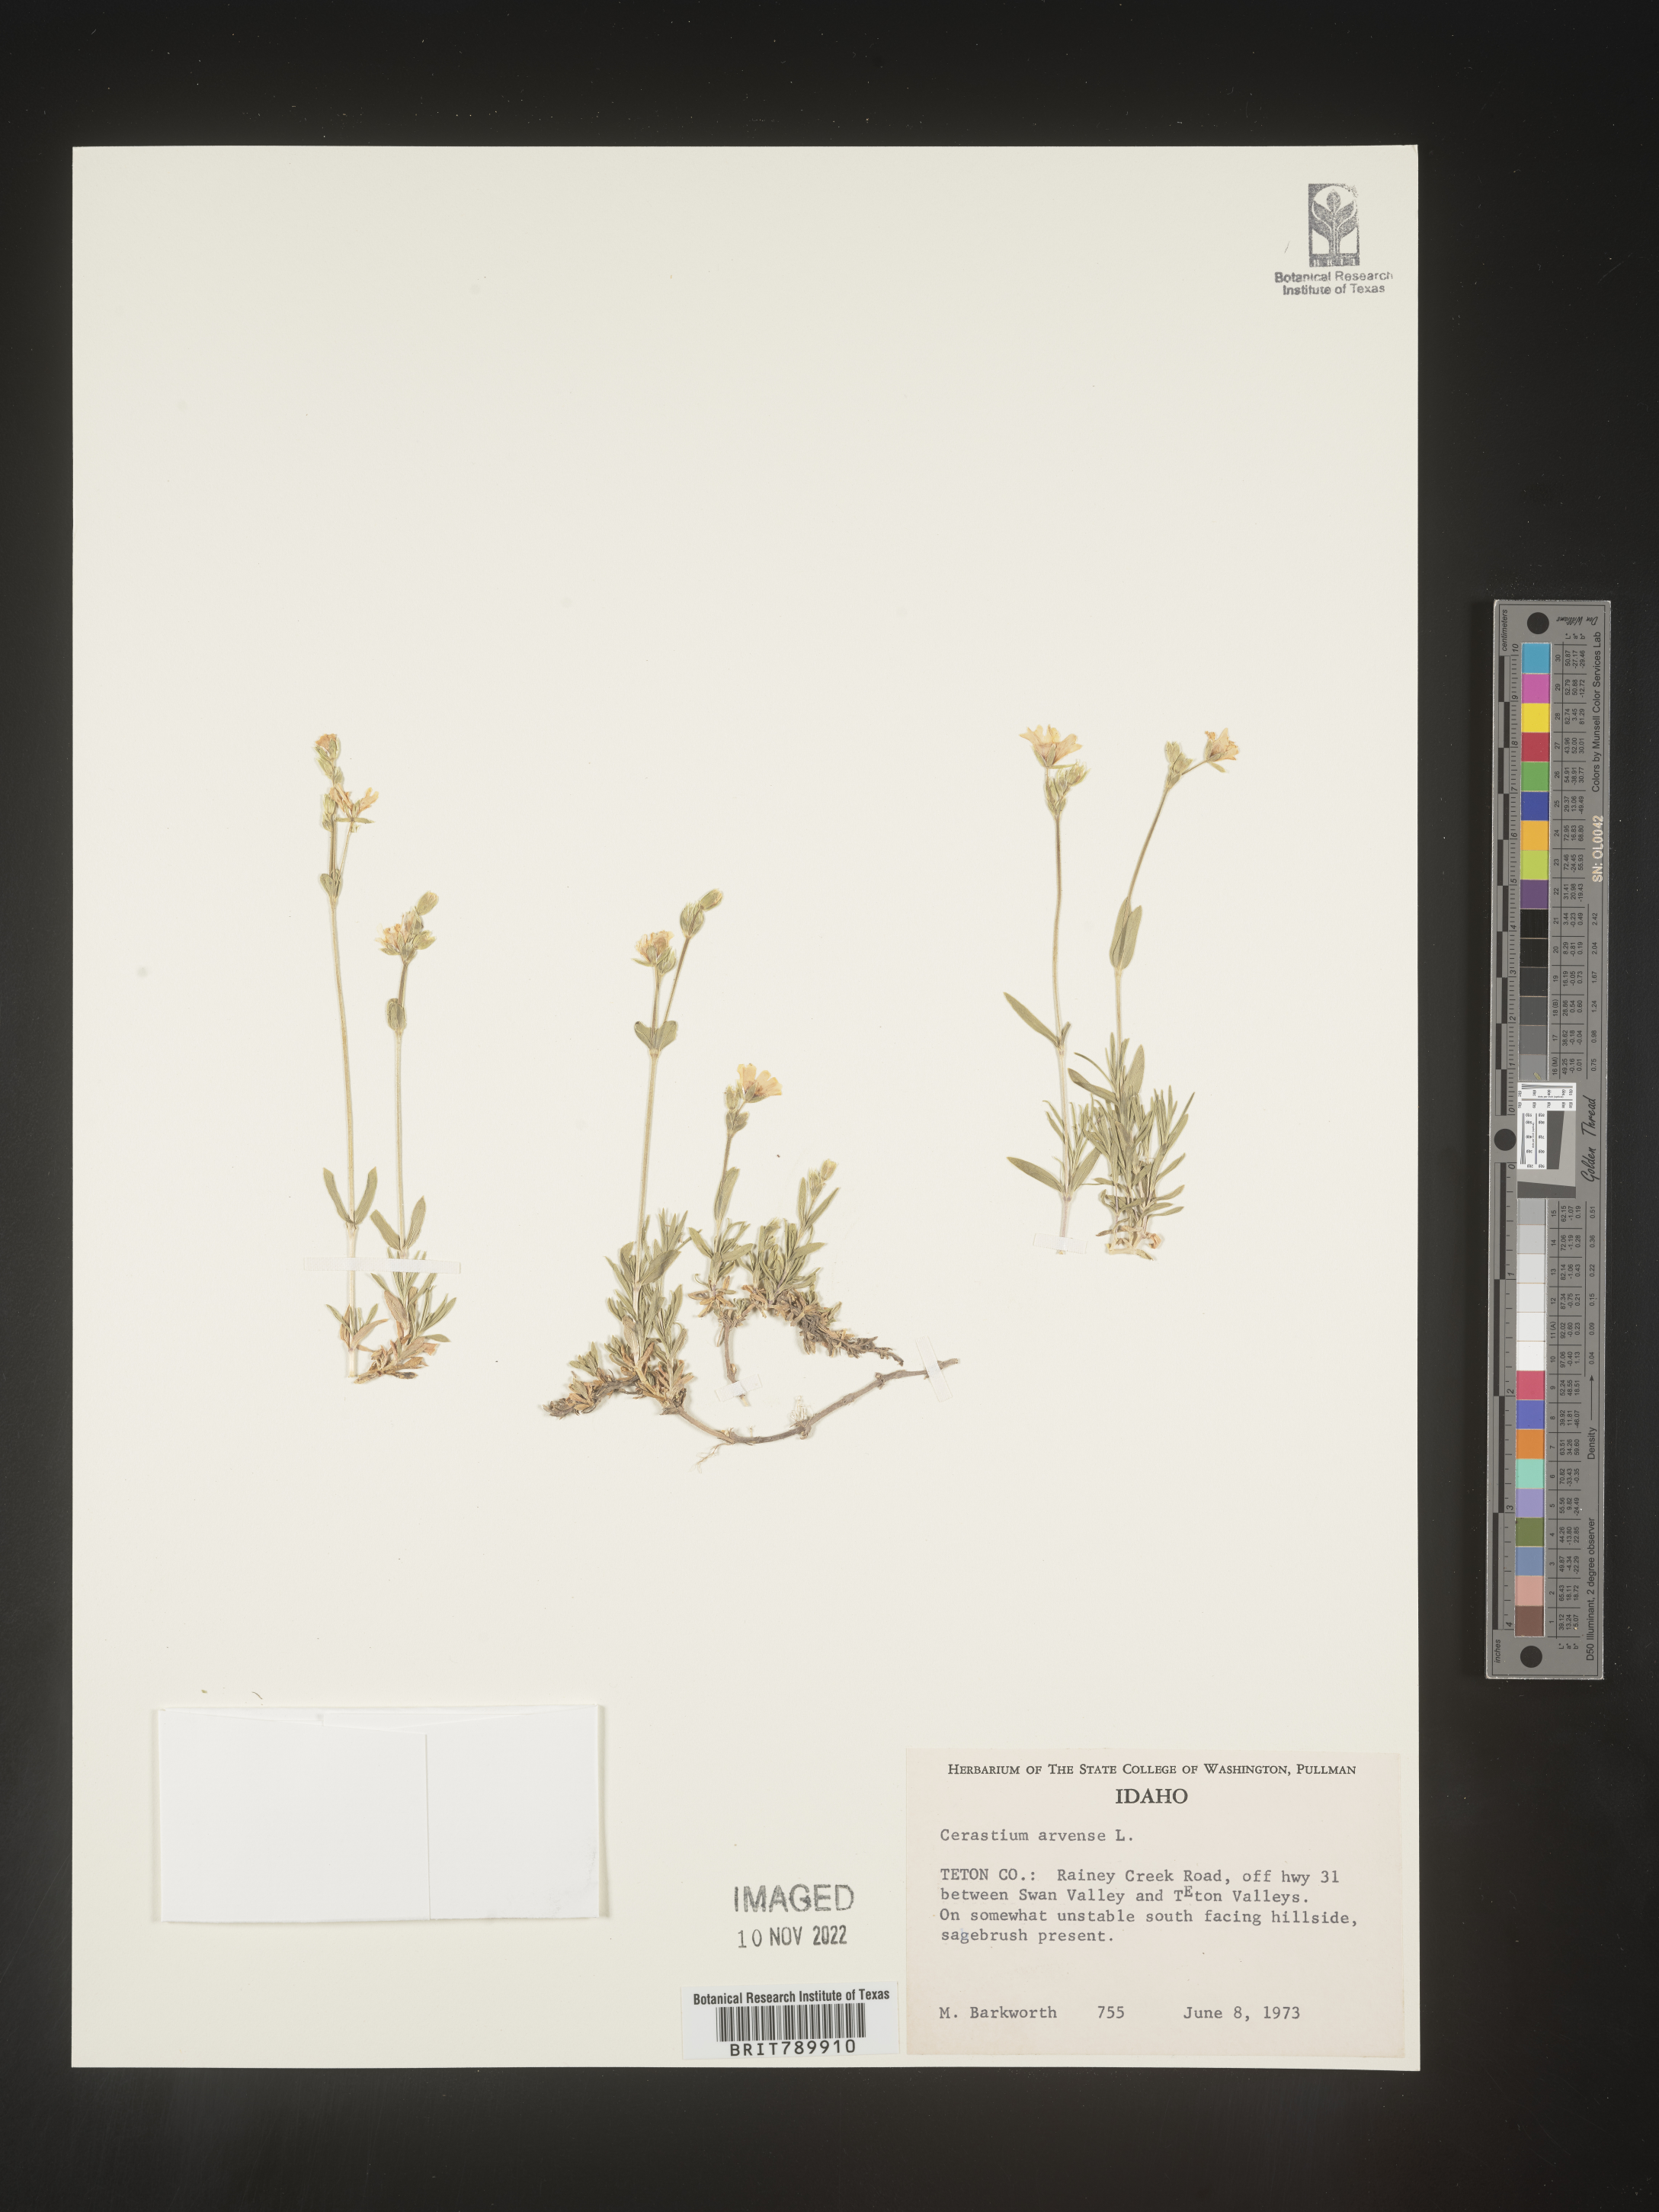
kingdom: Plantae
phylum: Tracheophyta
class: Magnoliopsida
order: Caryophyllales
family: Caryophyllaceae
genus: Cerastium
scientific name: Cerastium arvense
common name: Field mouse-ear
